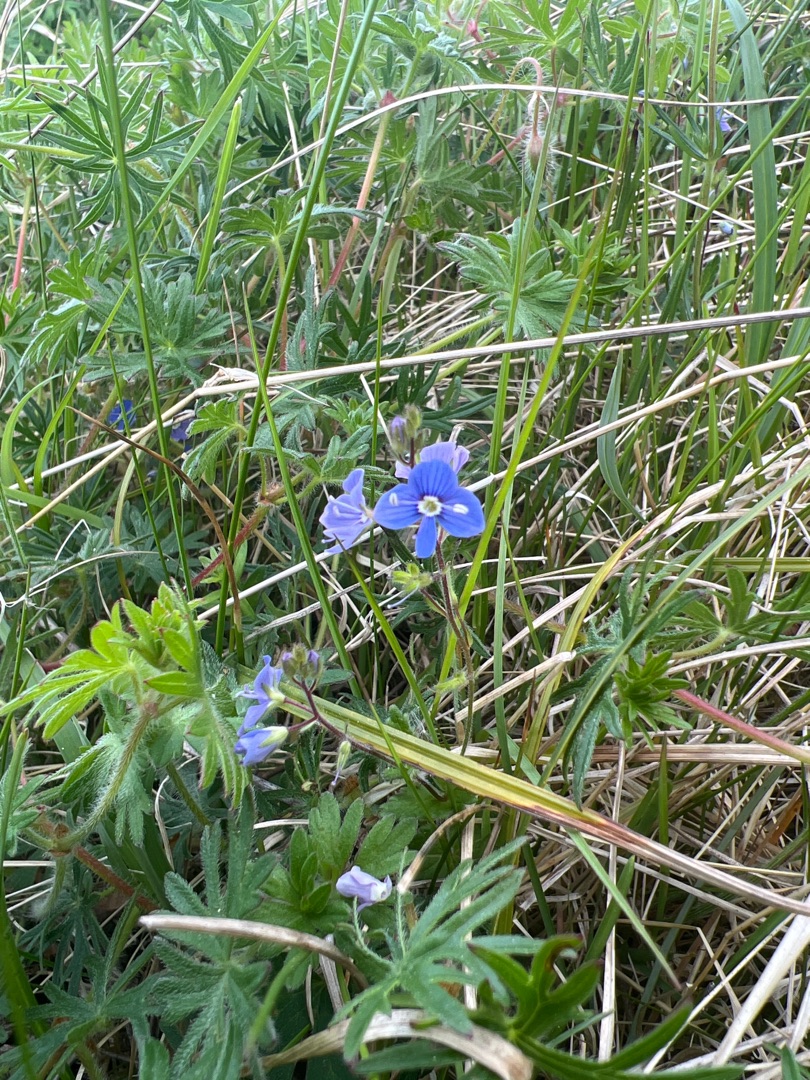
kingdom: Plantae
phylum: Tracheophyta
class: Magnoliopsida
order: Lamiales
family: Plantaginaceae
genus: Veronica
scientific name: Veronica chamaedrys
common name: Tveskægget ærenpris
